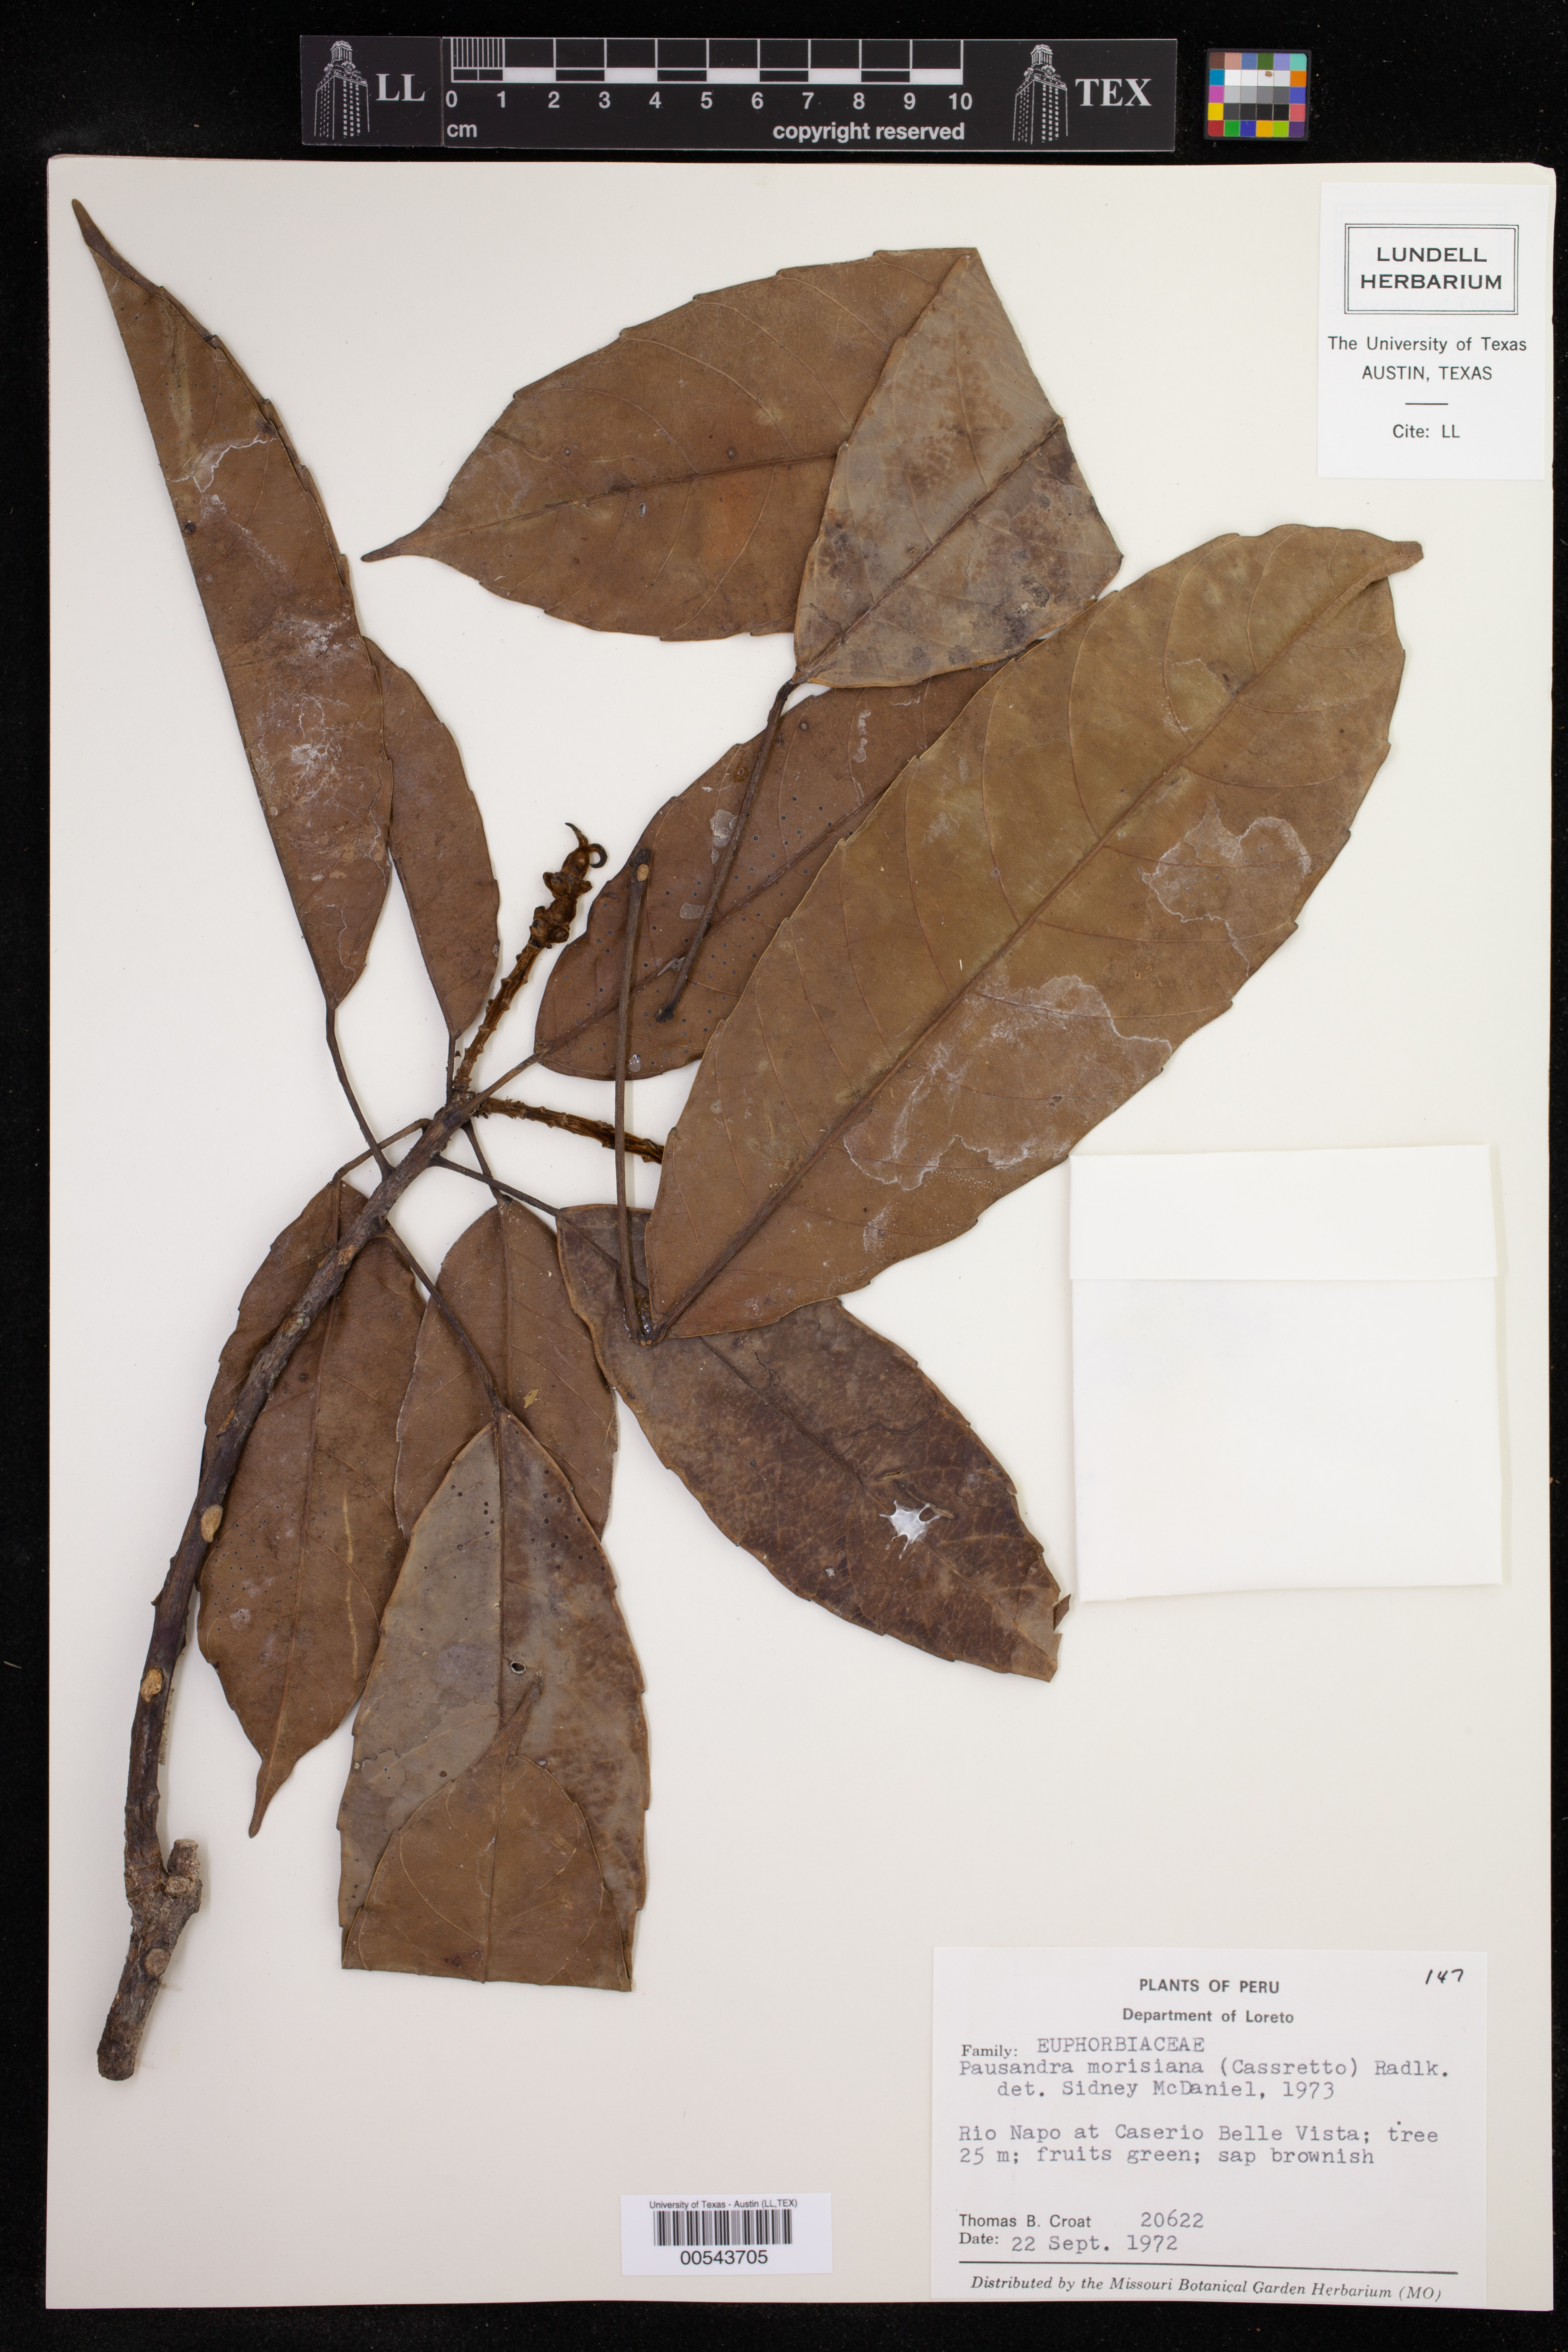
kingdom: Plantae
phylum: Tracheophyta
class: Magnoliopsida
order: Malpighiales
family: Euphorbiaceae
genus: Pausandra
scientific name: Pausandra morisiana
